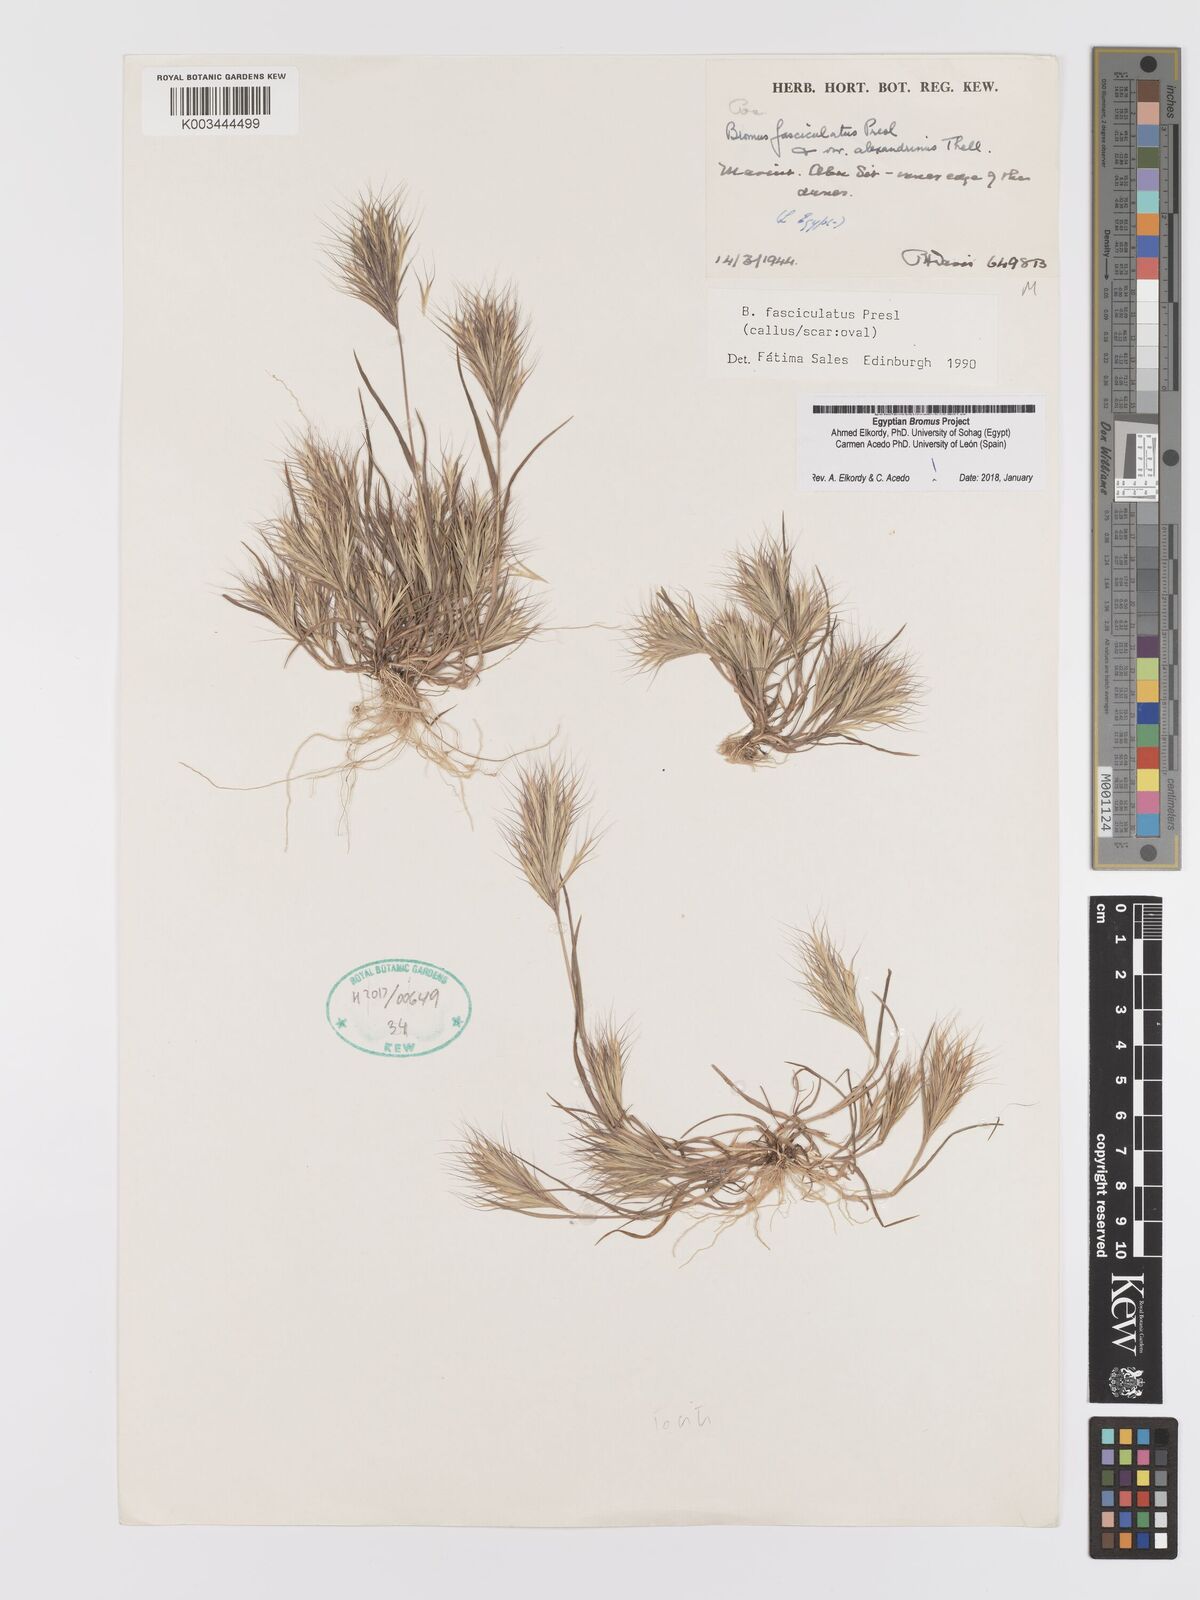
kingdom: Plantae
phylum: Tracheophyta
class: Liliopsida
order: Poales
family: Poaceae
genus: Bromus
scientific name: Bromus fasciculatus
